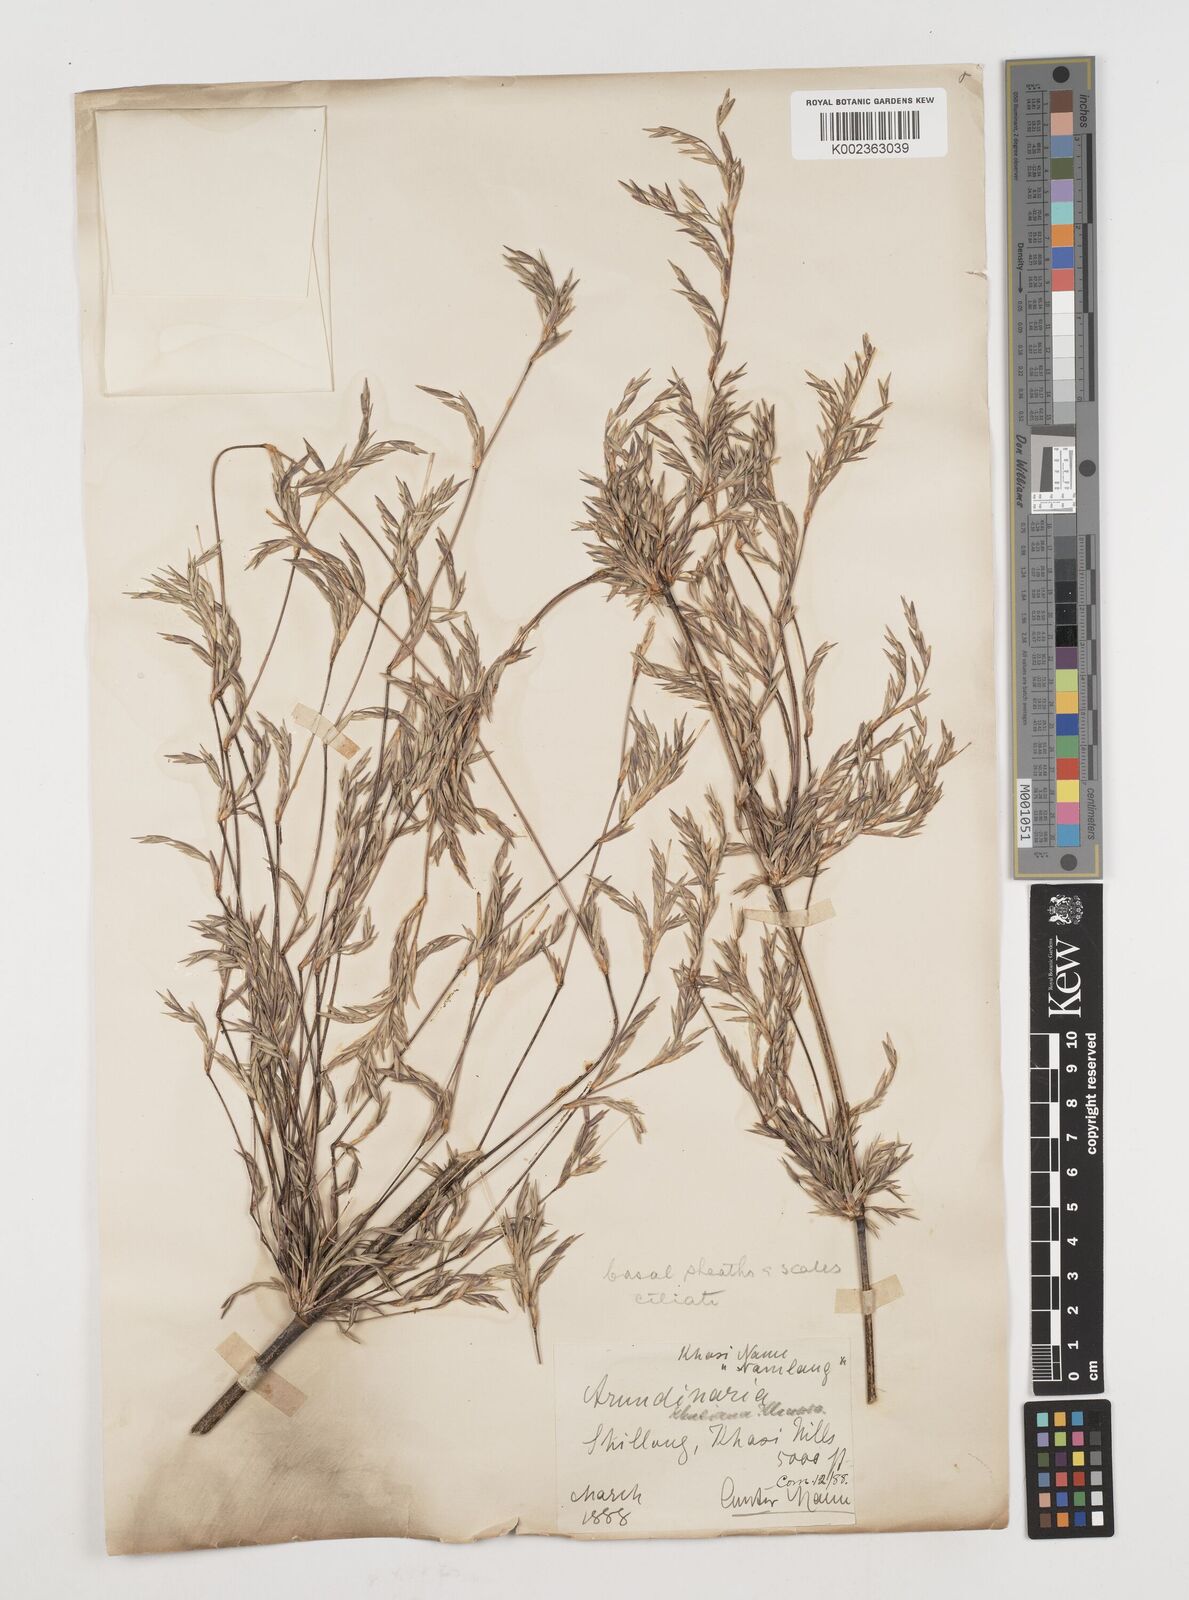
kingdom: Plantae
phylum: Tracheophyta
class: Liliopsida
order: Poales
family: Poaceae
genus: Drepanostachyum
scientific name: Drepanostachyum khasianum
